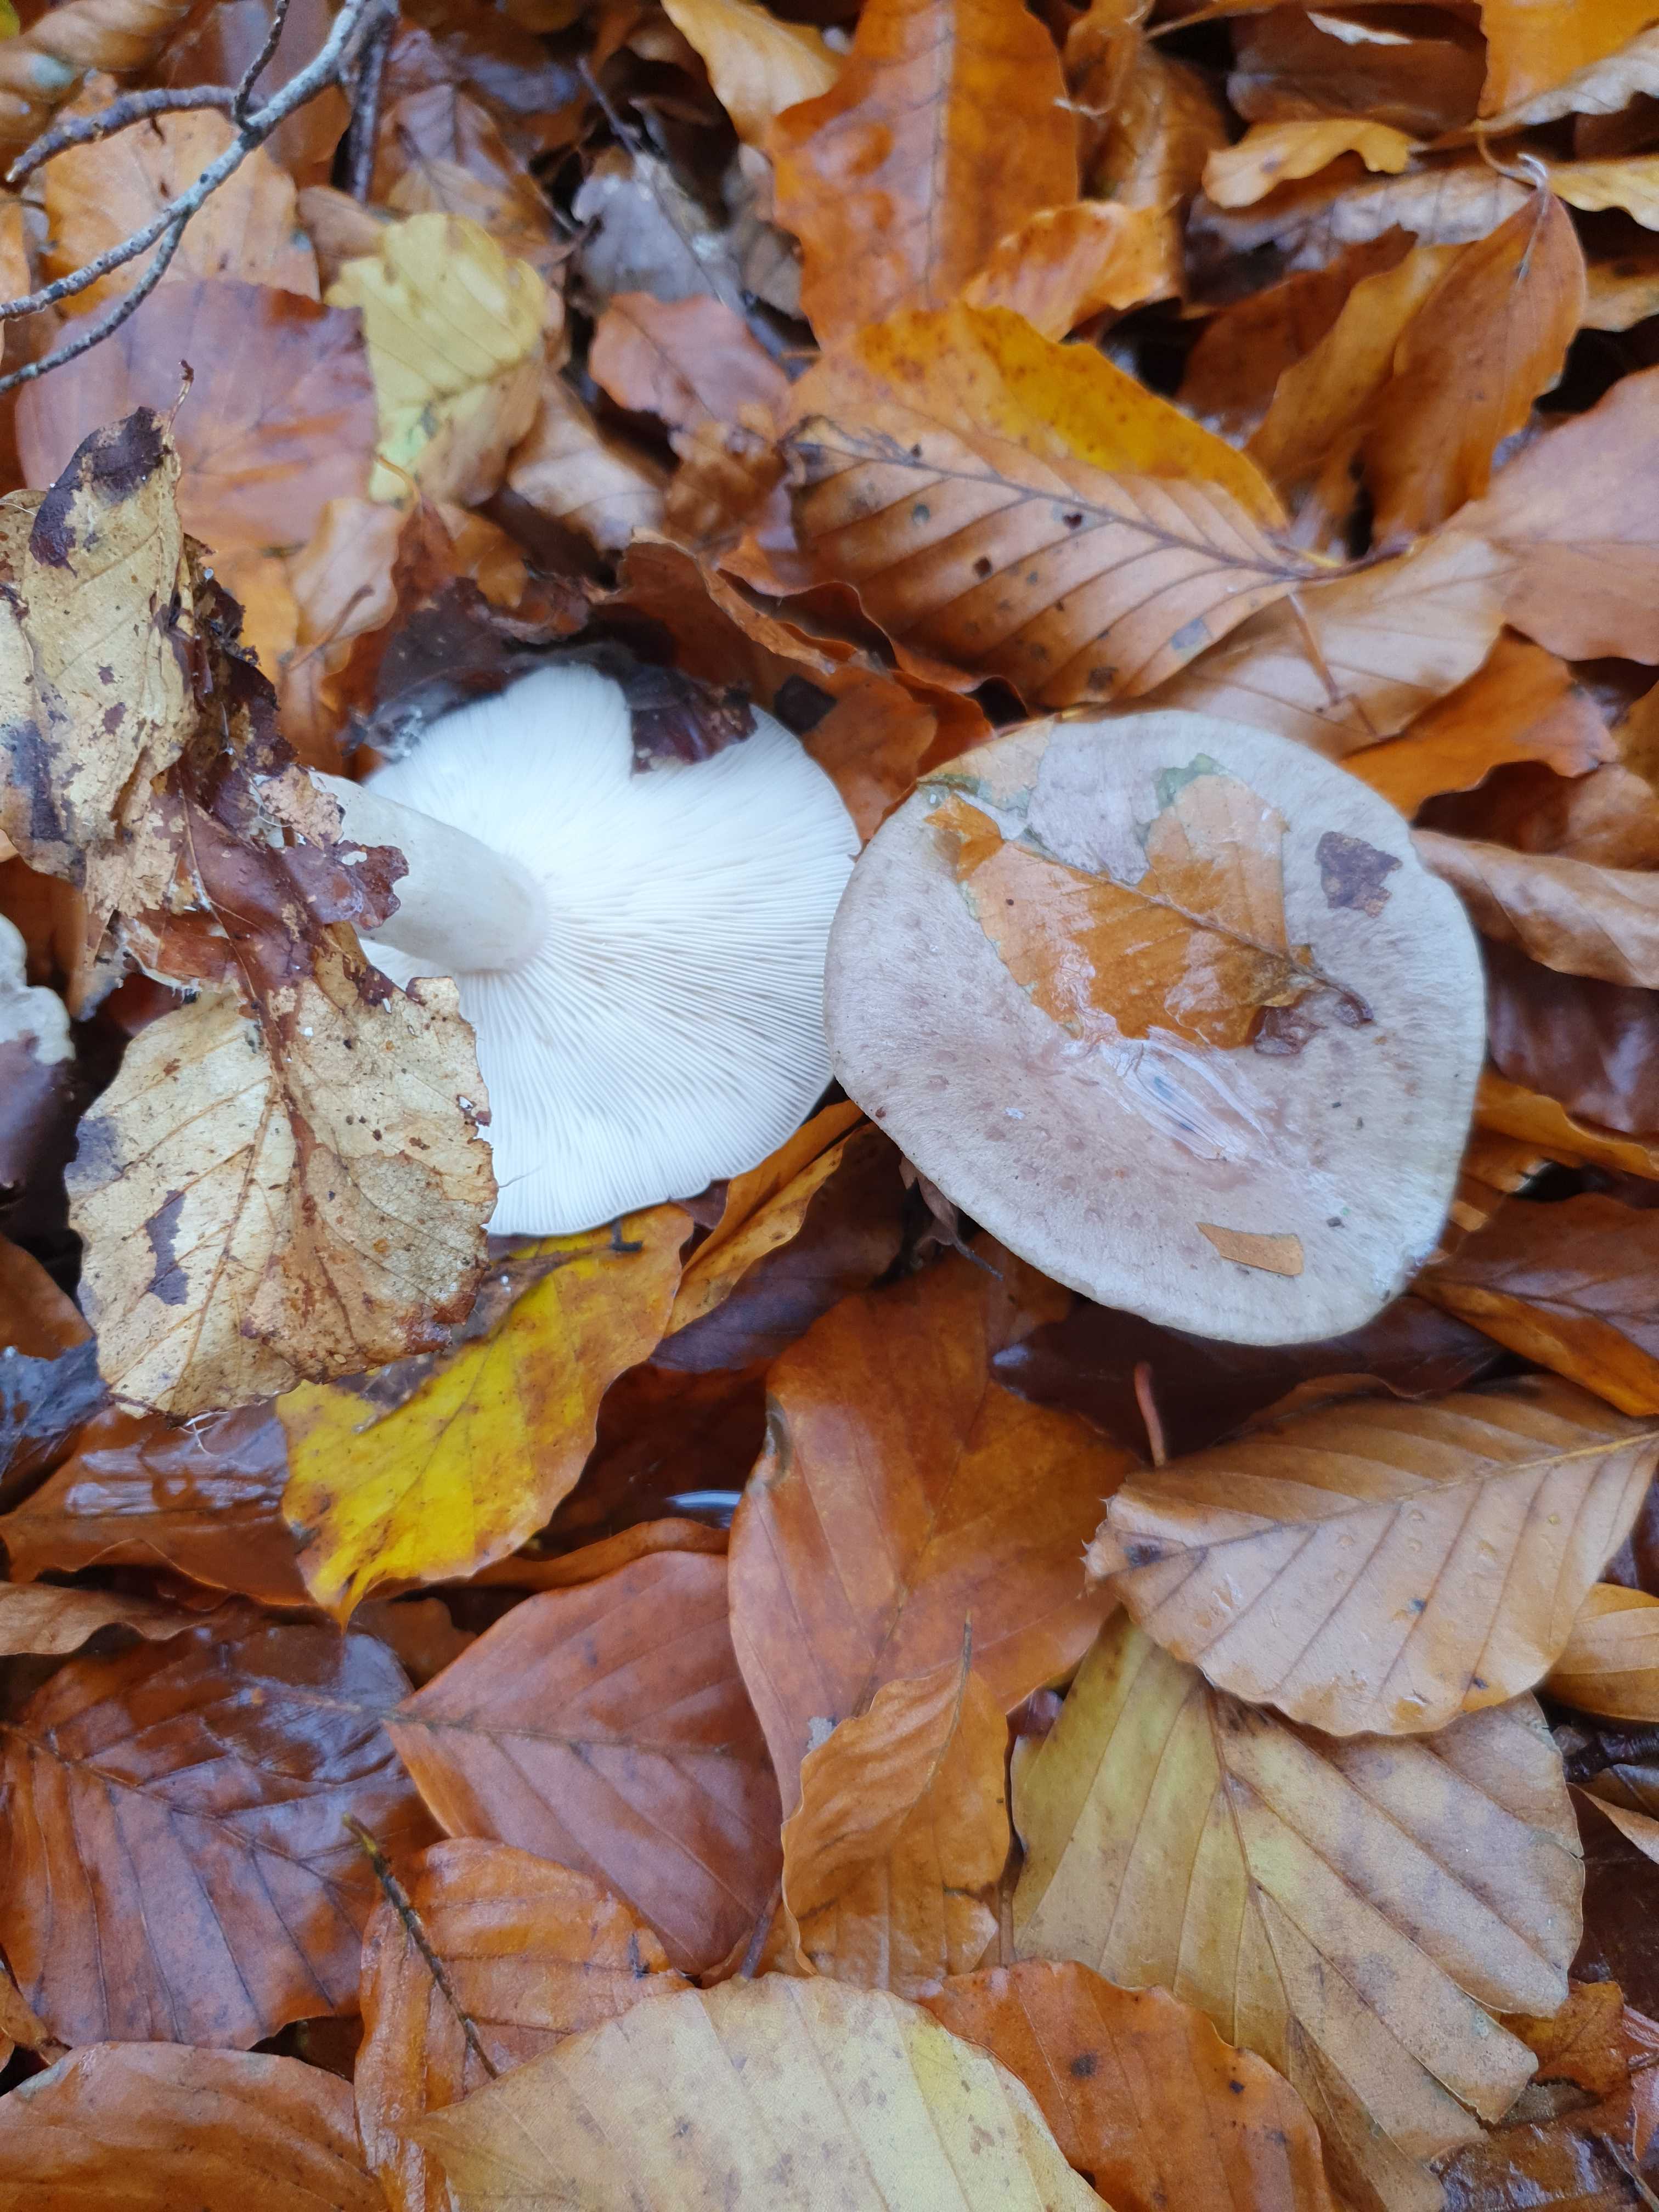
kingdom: Fungi
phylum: Basidiomycota
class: Agaricomycetes
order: Russulales
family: Russulaceae
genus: Lactarius
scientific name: Lactarius blennius
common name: dråbeplettet mælkehat
